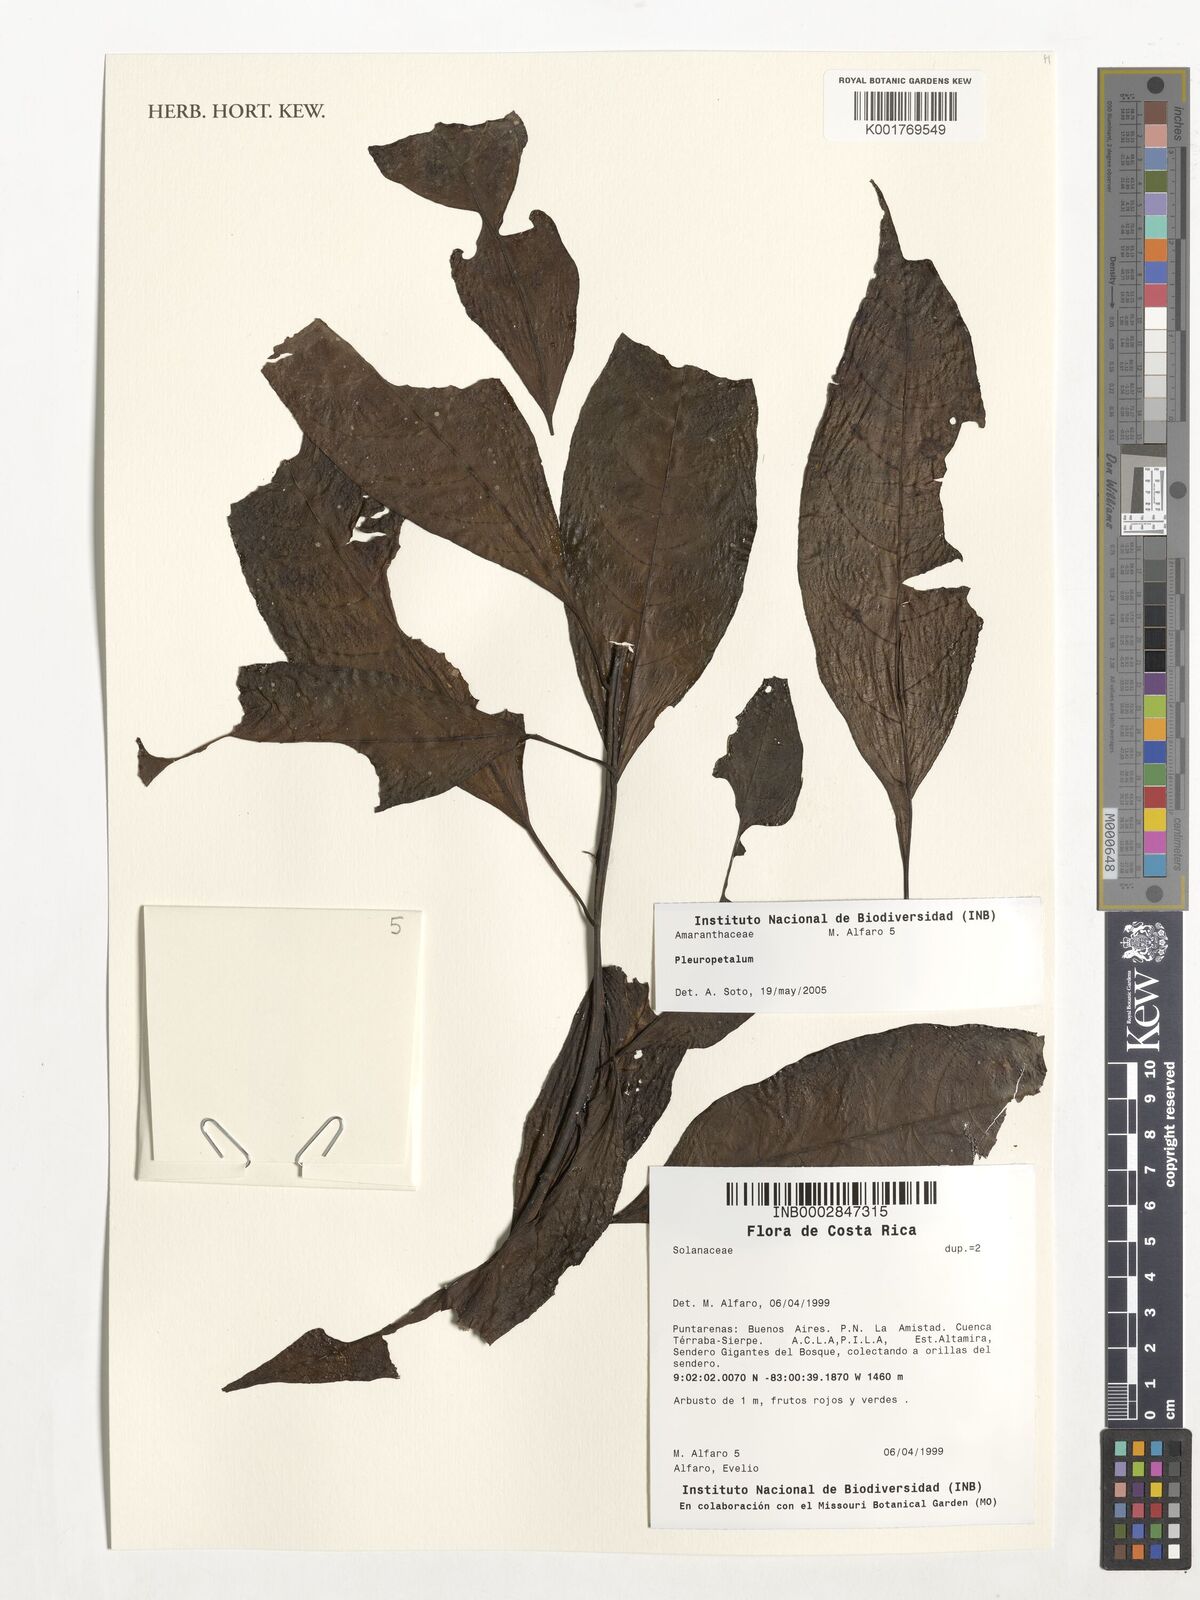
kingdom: Plantae
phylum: Tracheophyta
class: Magnoliopsida
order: Caryophyllales
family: Amaranthaceae
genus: Pleuropetalum
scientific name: Pleuropetalum
